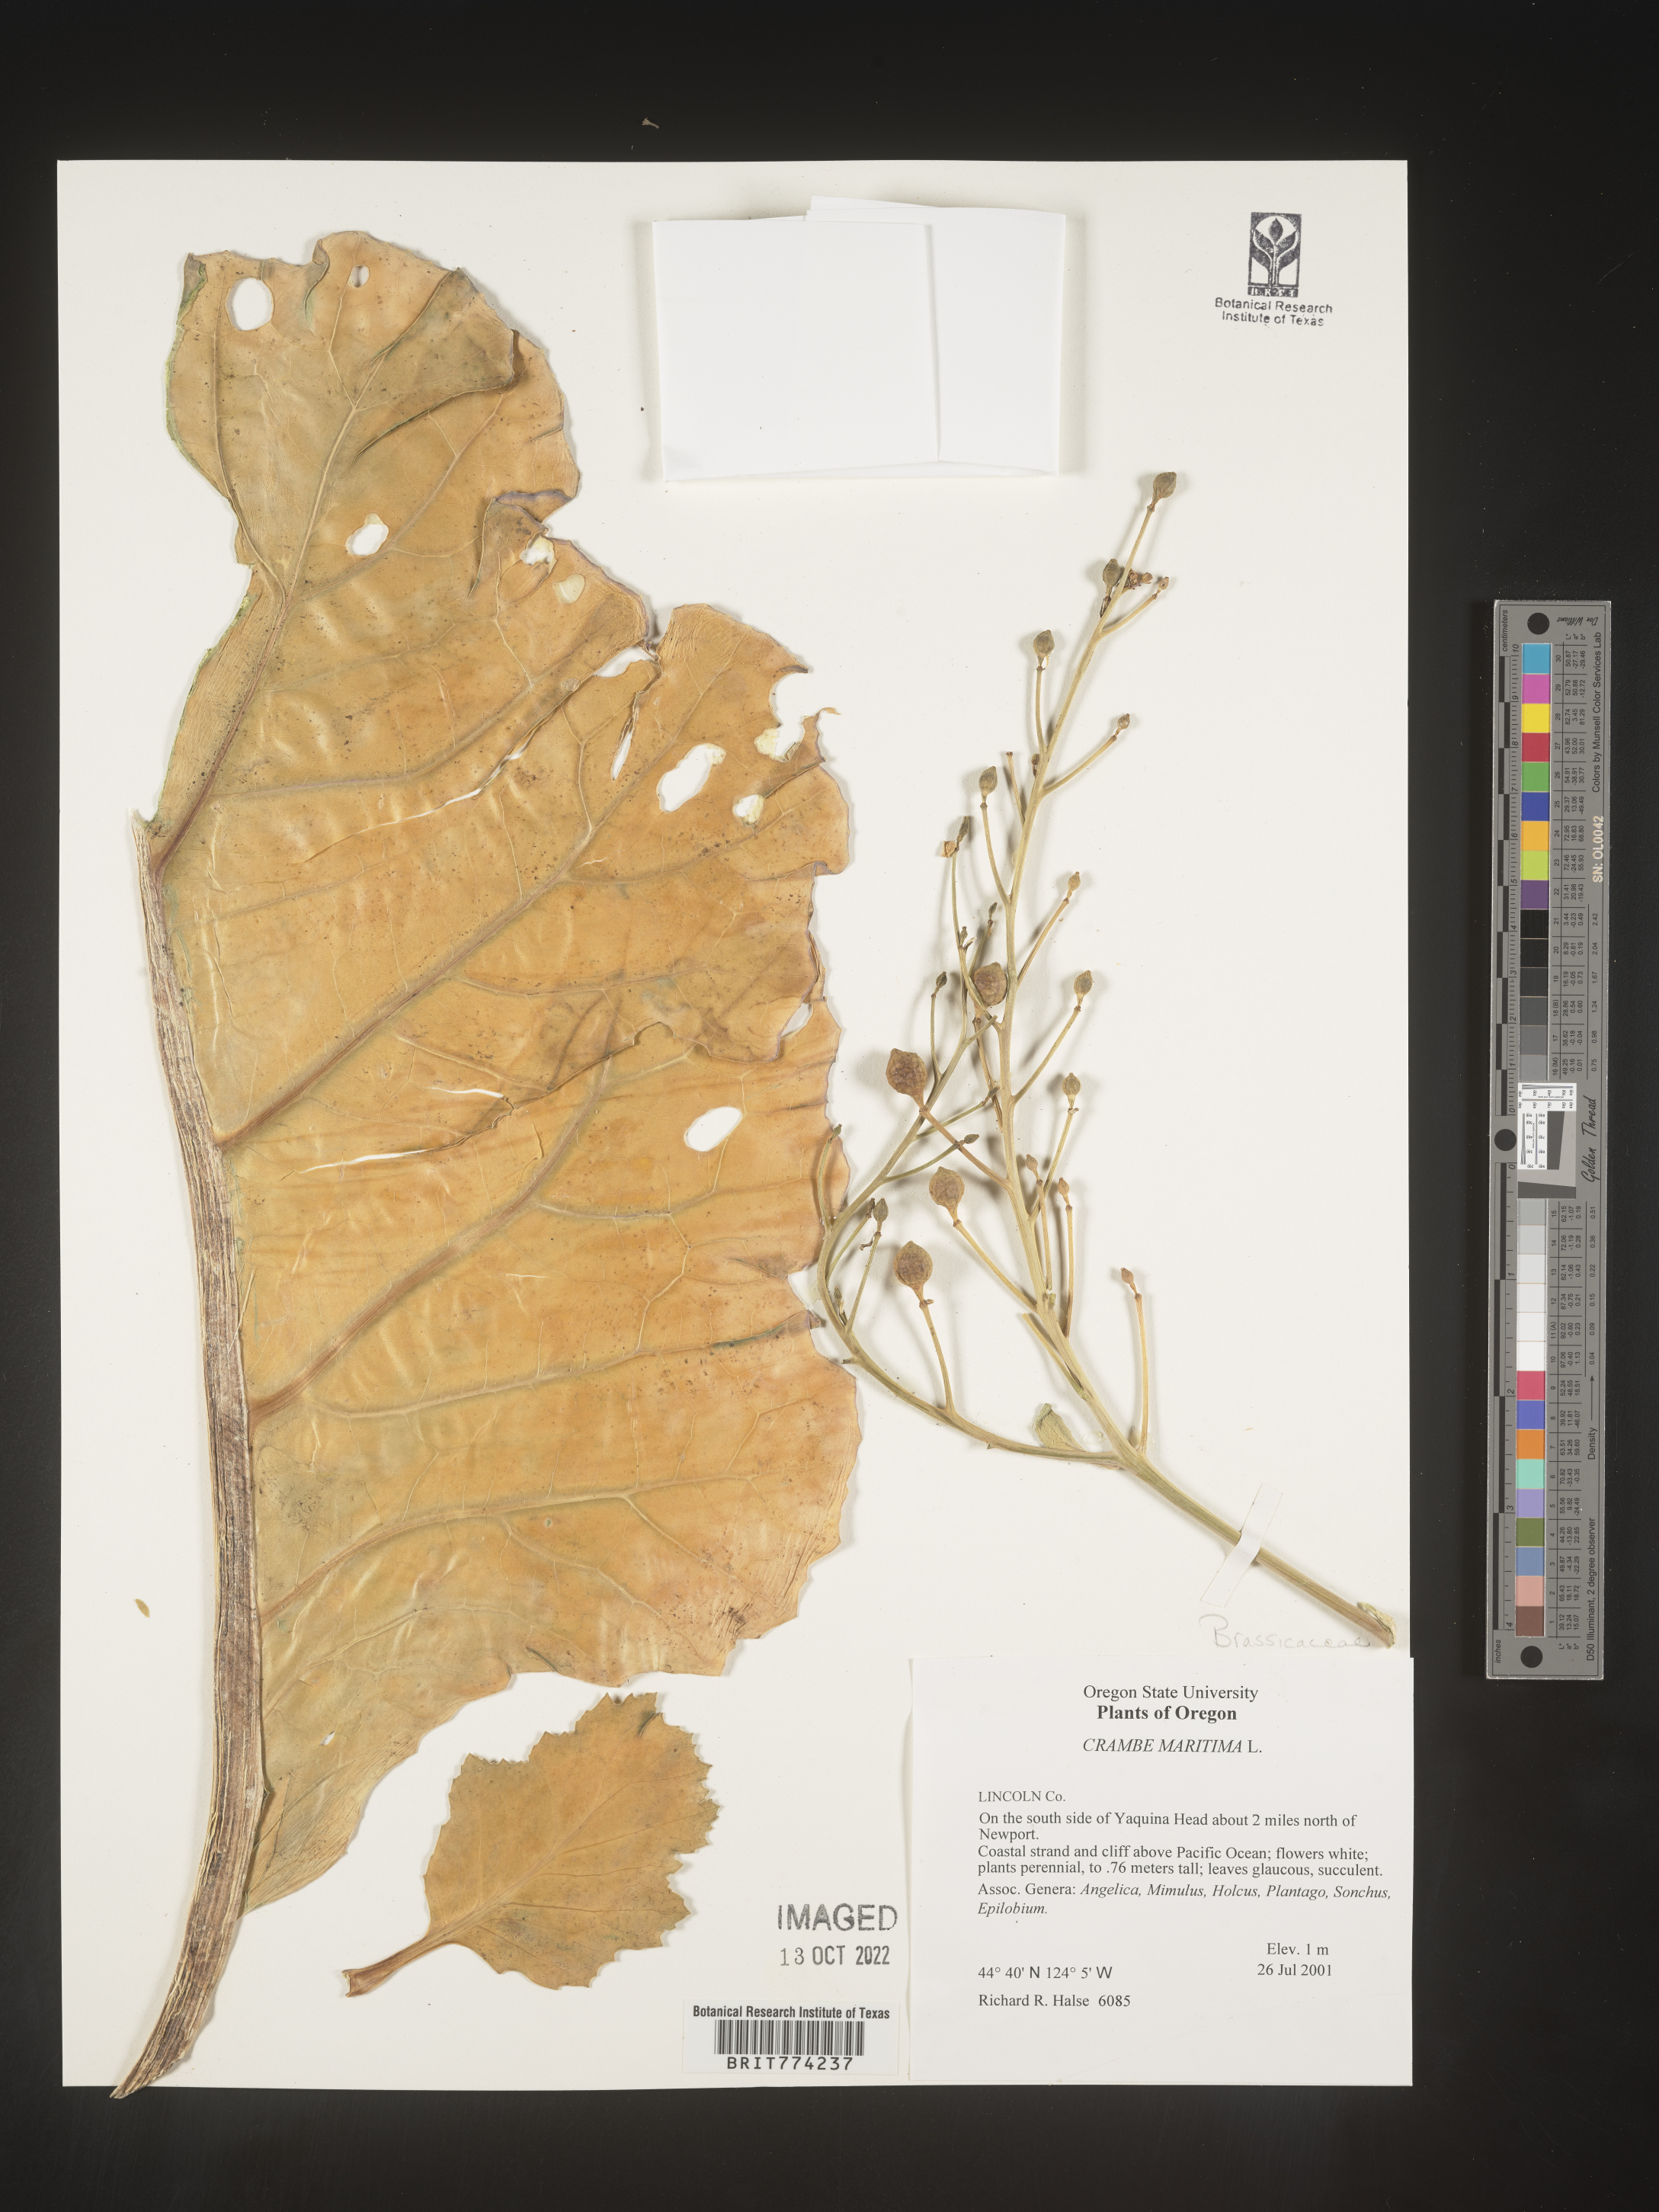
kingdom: Plantae
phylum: Tracheophyta
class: Magnoliopsida
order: Brassicales
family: Brassicaceae
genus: Crambe
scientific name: Crambe maritima
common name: Sea-kale
